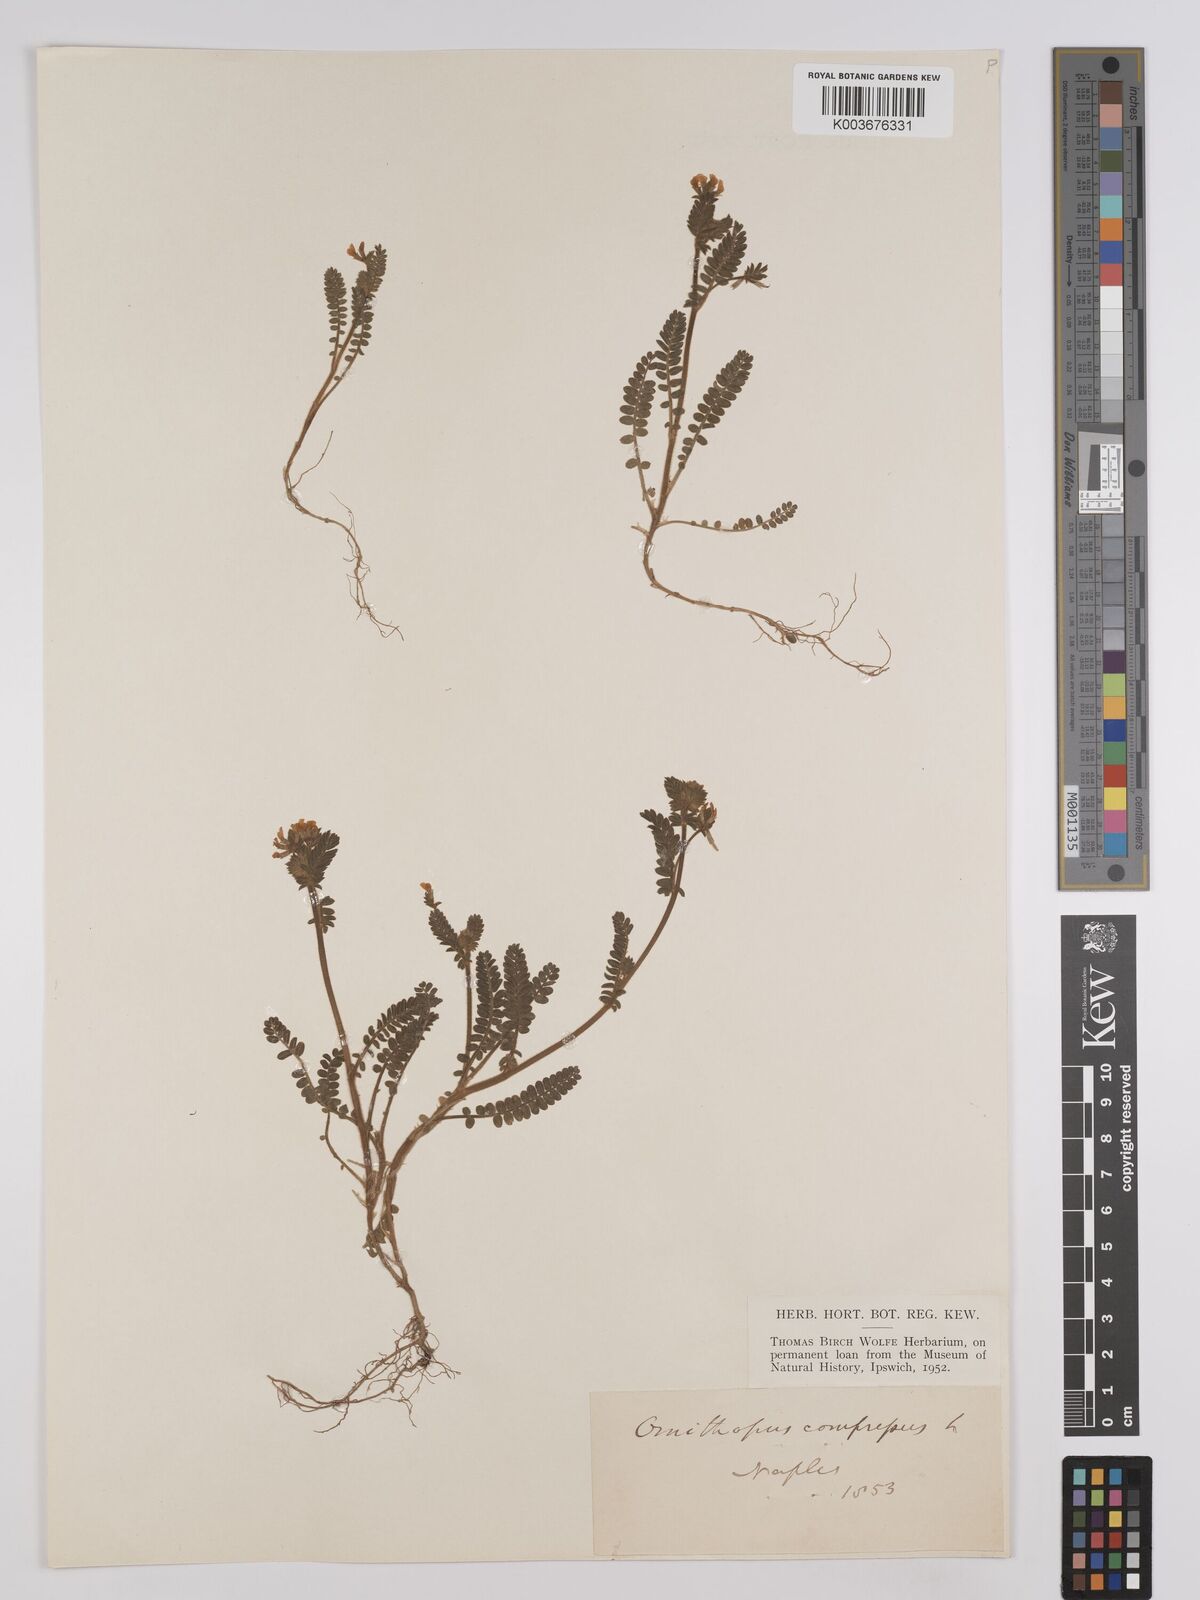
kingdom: Plantae
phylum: Tracheophyta
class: Magnoliopsida
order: Fabales
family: Fabaceae
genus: Ornithopus
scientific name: Ornithopus compressus
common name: Yellow serradella
